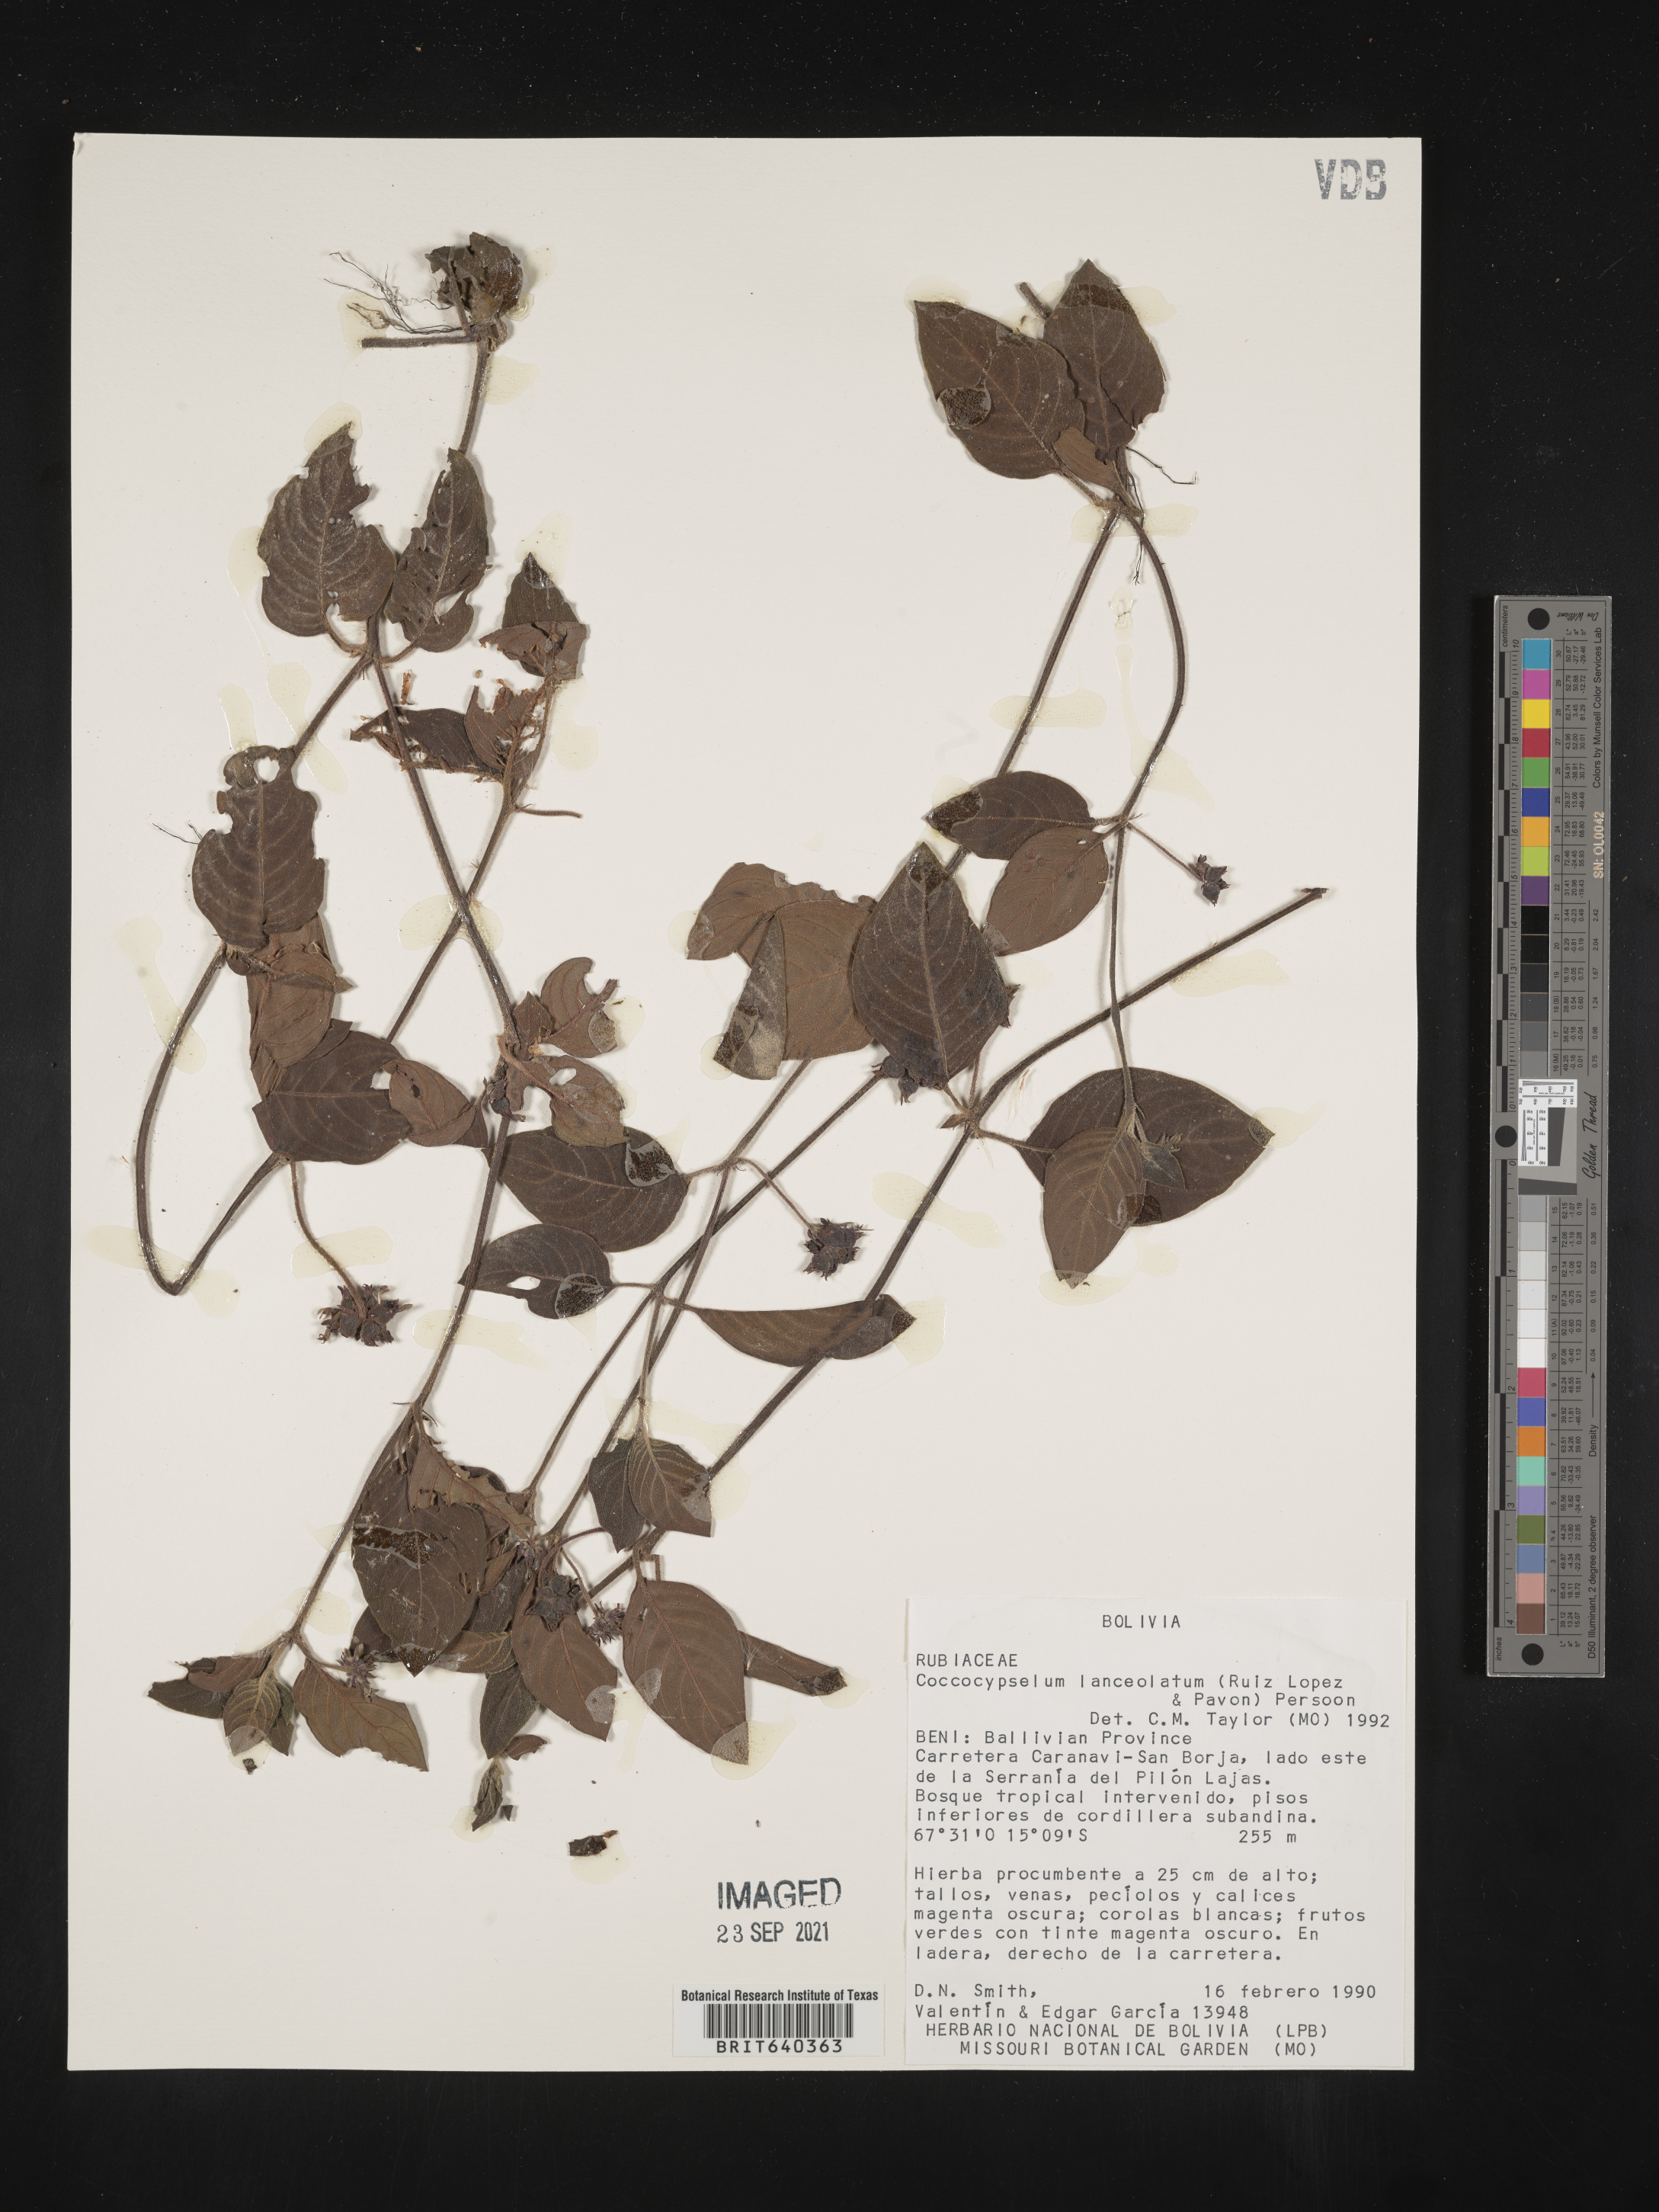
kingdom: Plantae
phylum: Tracheophyta
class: Magnoliopsida
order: Gentianales
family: Rubiaceae
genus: Coccocypselum
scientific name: Coccocypselum
